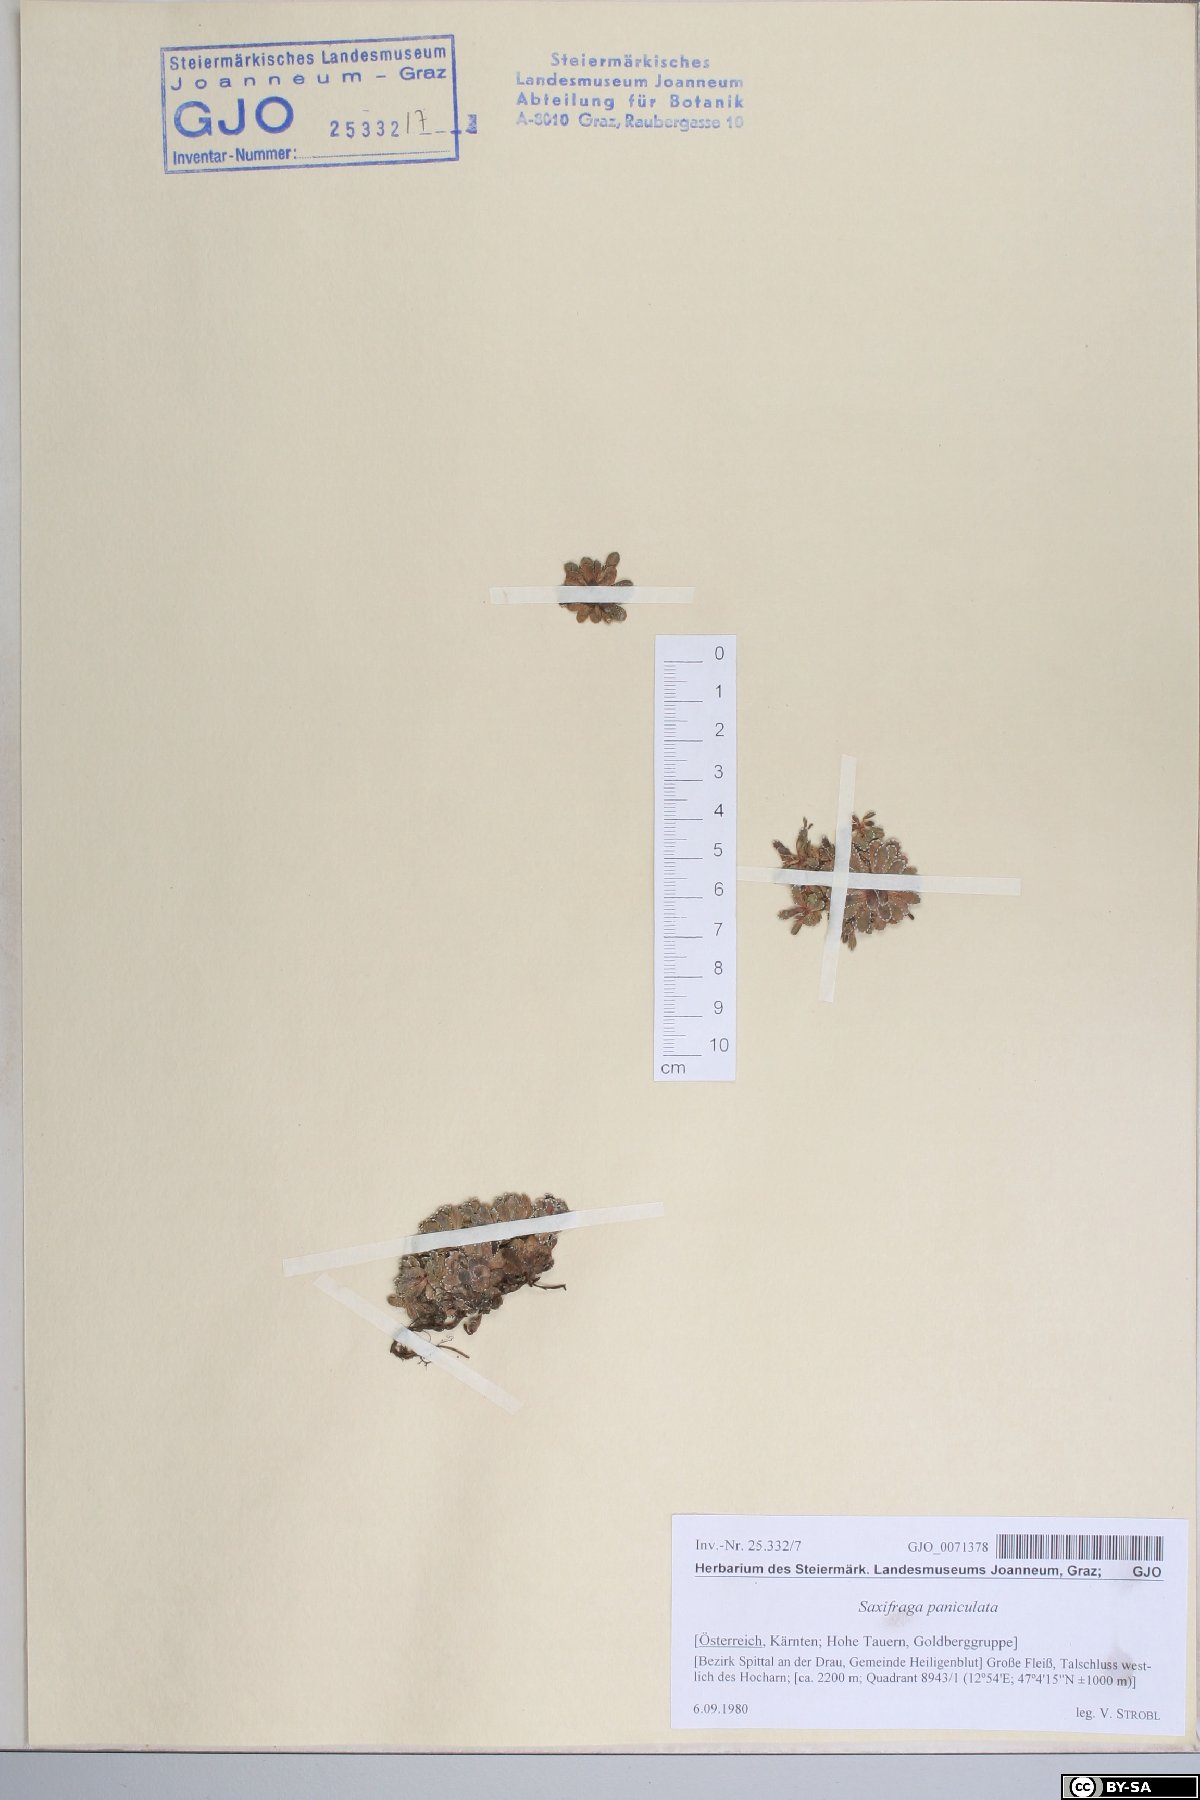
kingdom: Plantae
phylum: Tracheophyta
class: Magnoliopsida
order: Saxifragales
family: Saxifragaceae
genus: Saxifraga
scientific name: Saxifraga paniculata
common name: Livelong saxifrage
